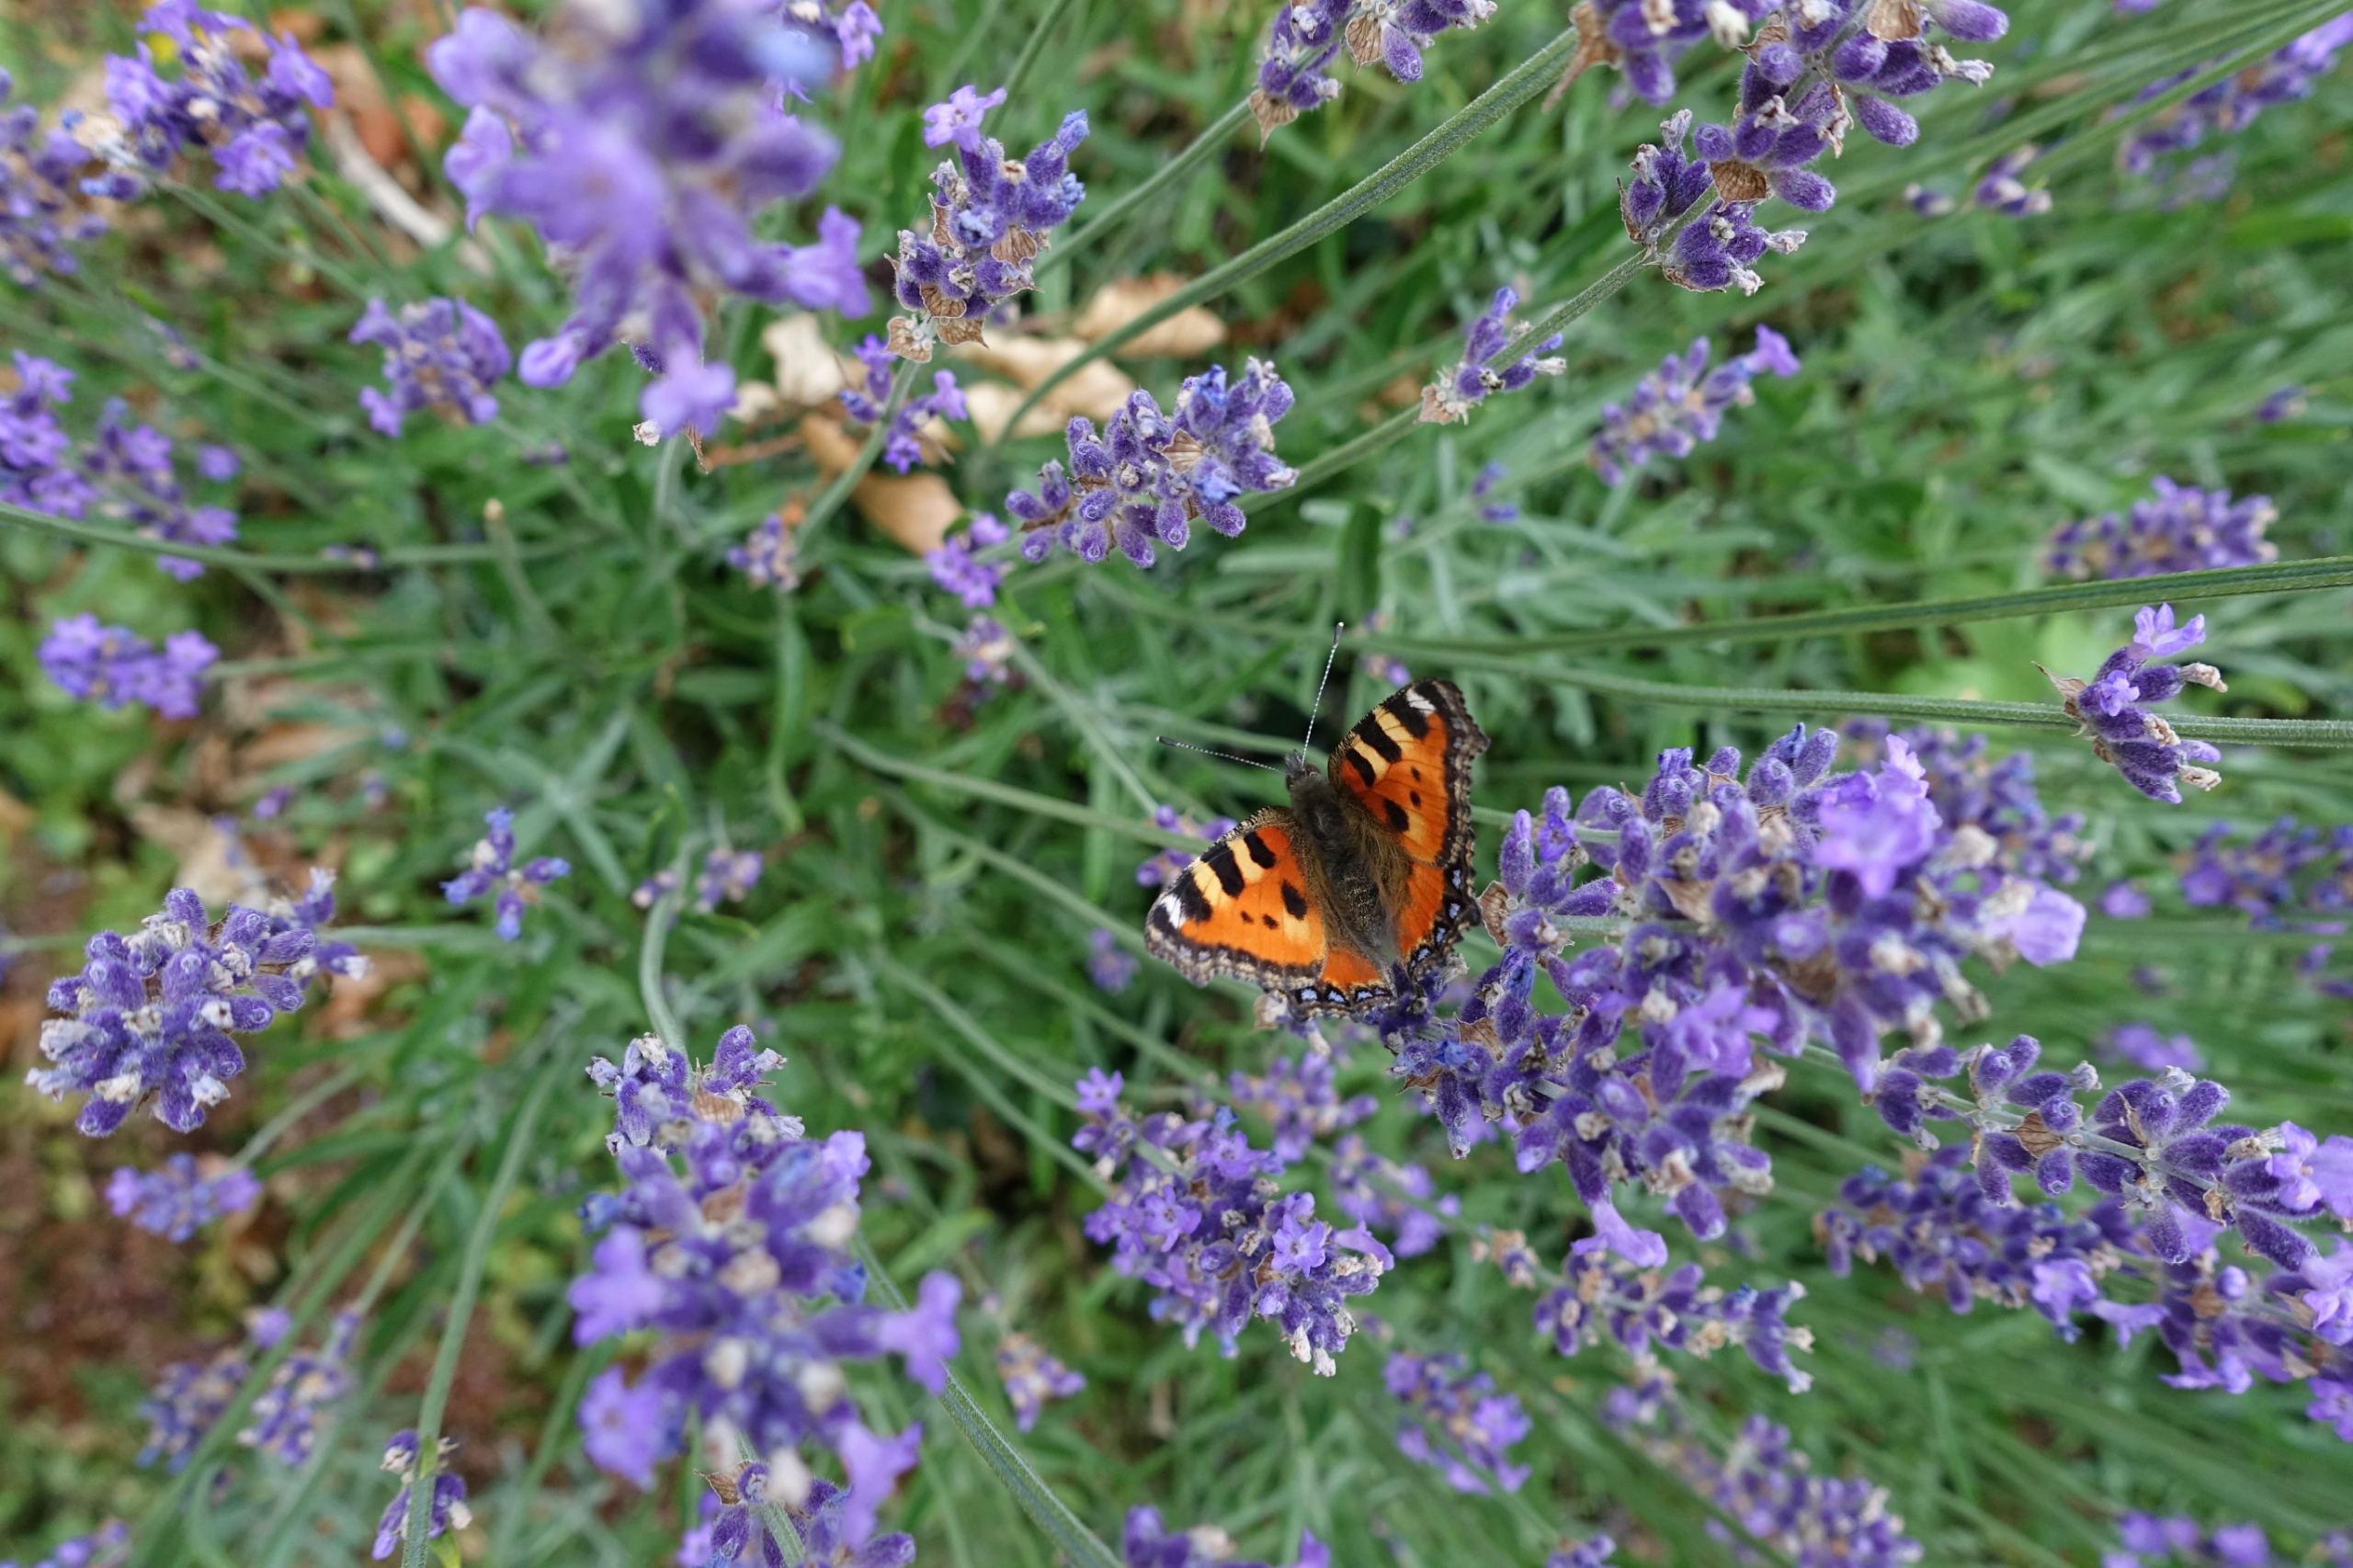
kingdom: Animalia
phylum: Arthropoda
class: Insecta
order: Lepidoptera
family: Nymphalidae
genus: Aglais
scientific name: Aglais urticae
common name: Nældens takvinge
